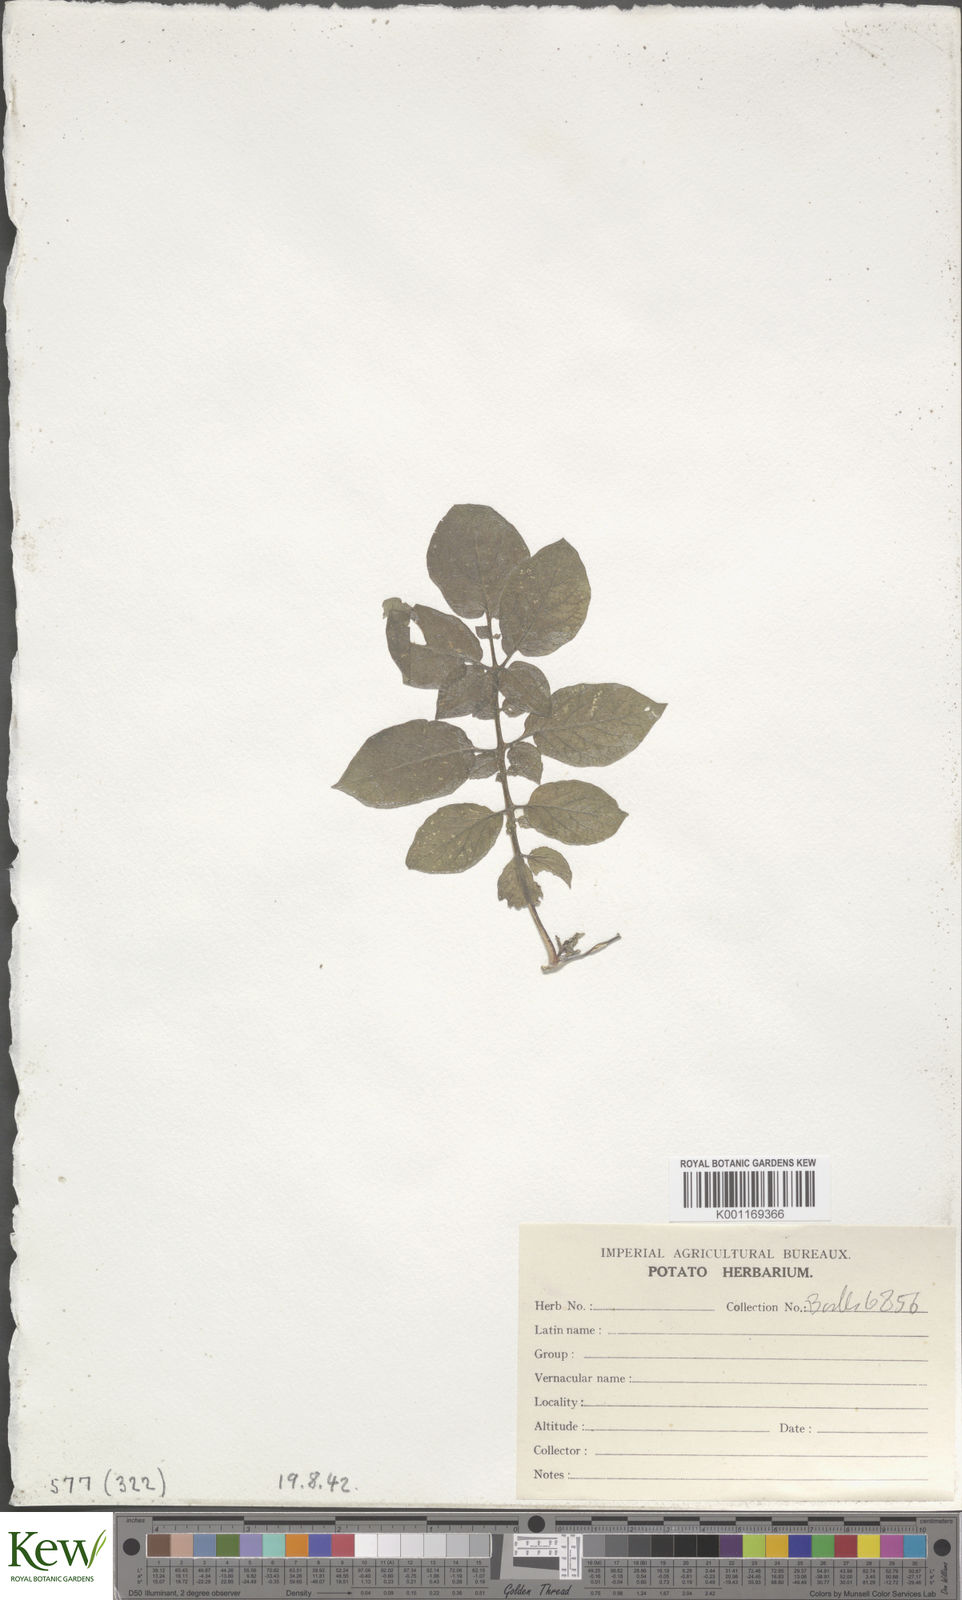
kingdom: Plantae
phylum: Tracheophyta
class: Magnoliopsida
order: Solanales
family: Solanaceae
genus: Solanum
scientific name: Solanum chaucha
